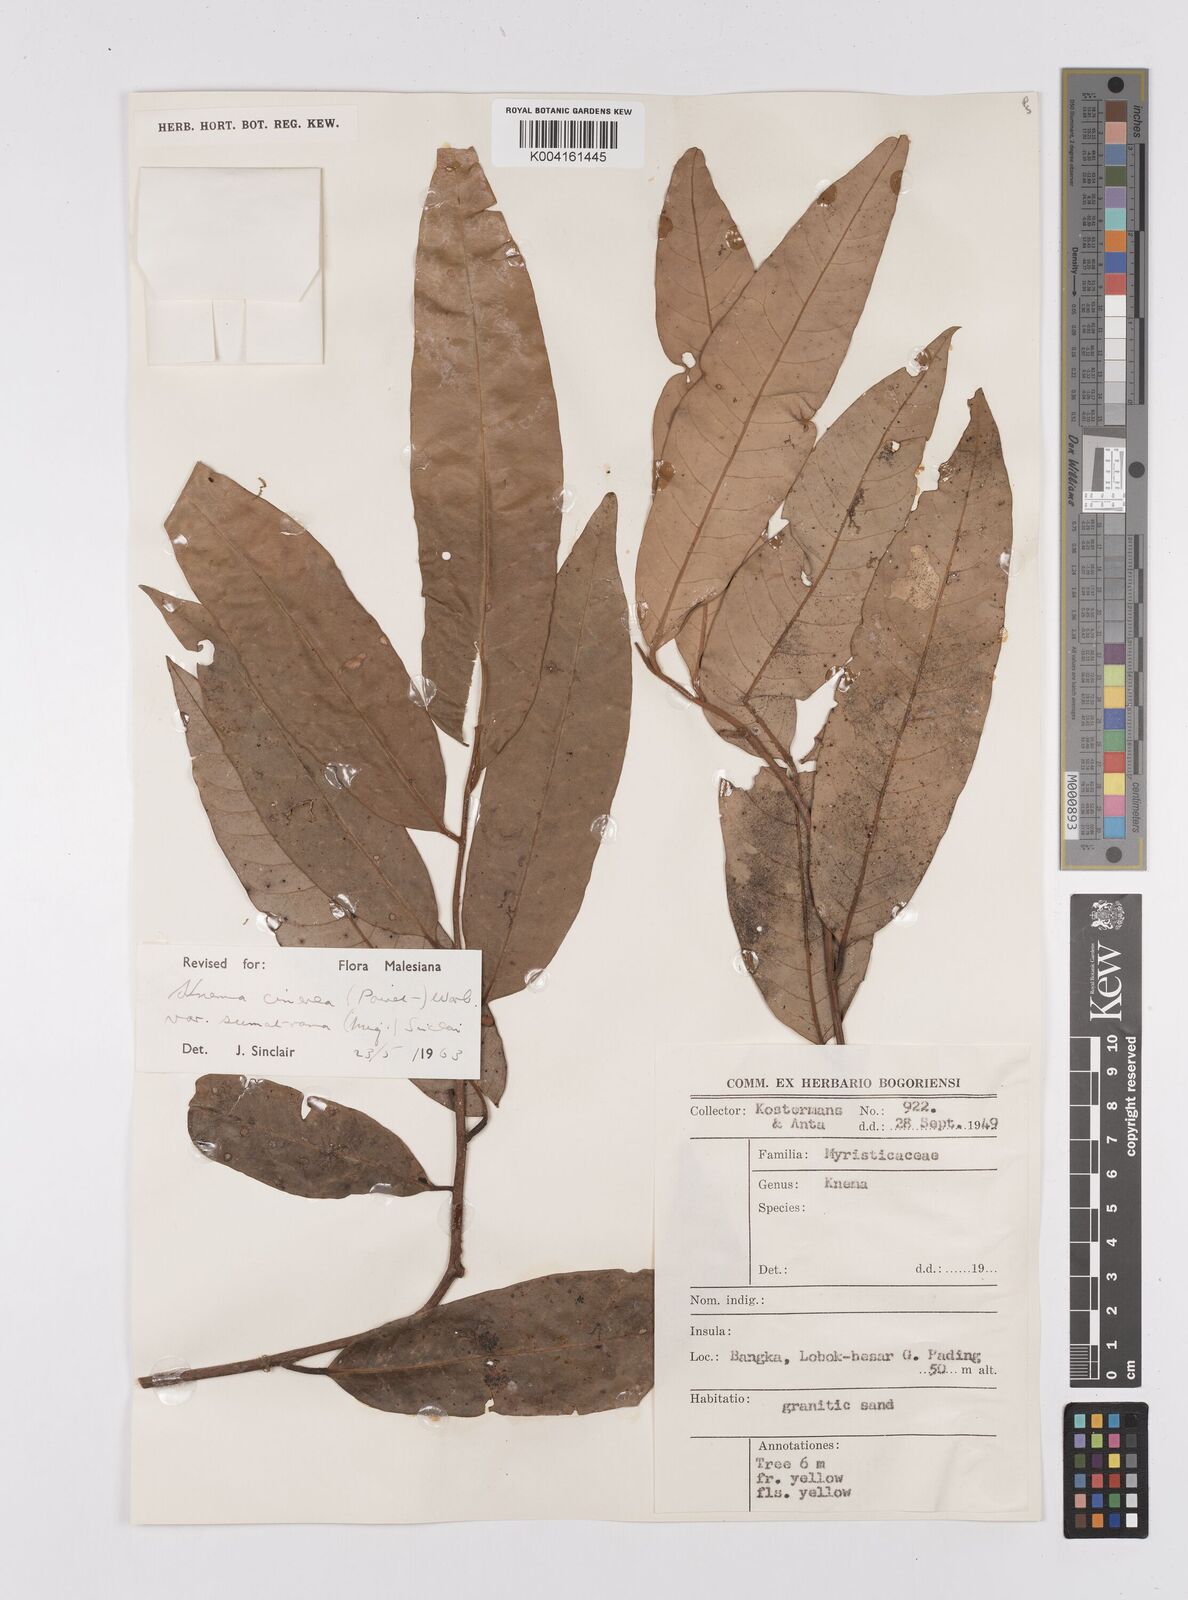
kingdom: Plantae
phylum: Tracheophyta
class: Magnoliopsida
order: Magnoliales
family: Myristicaceae
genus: Knema
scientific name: Knema
